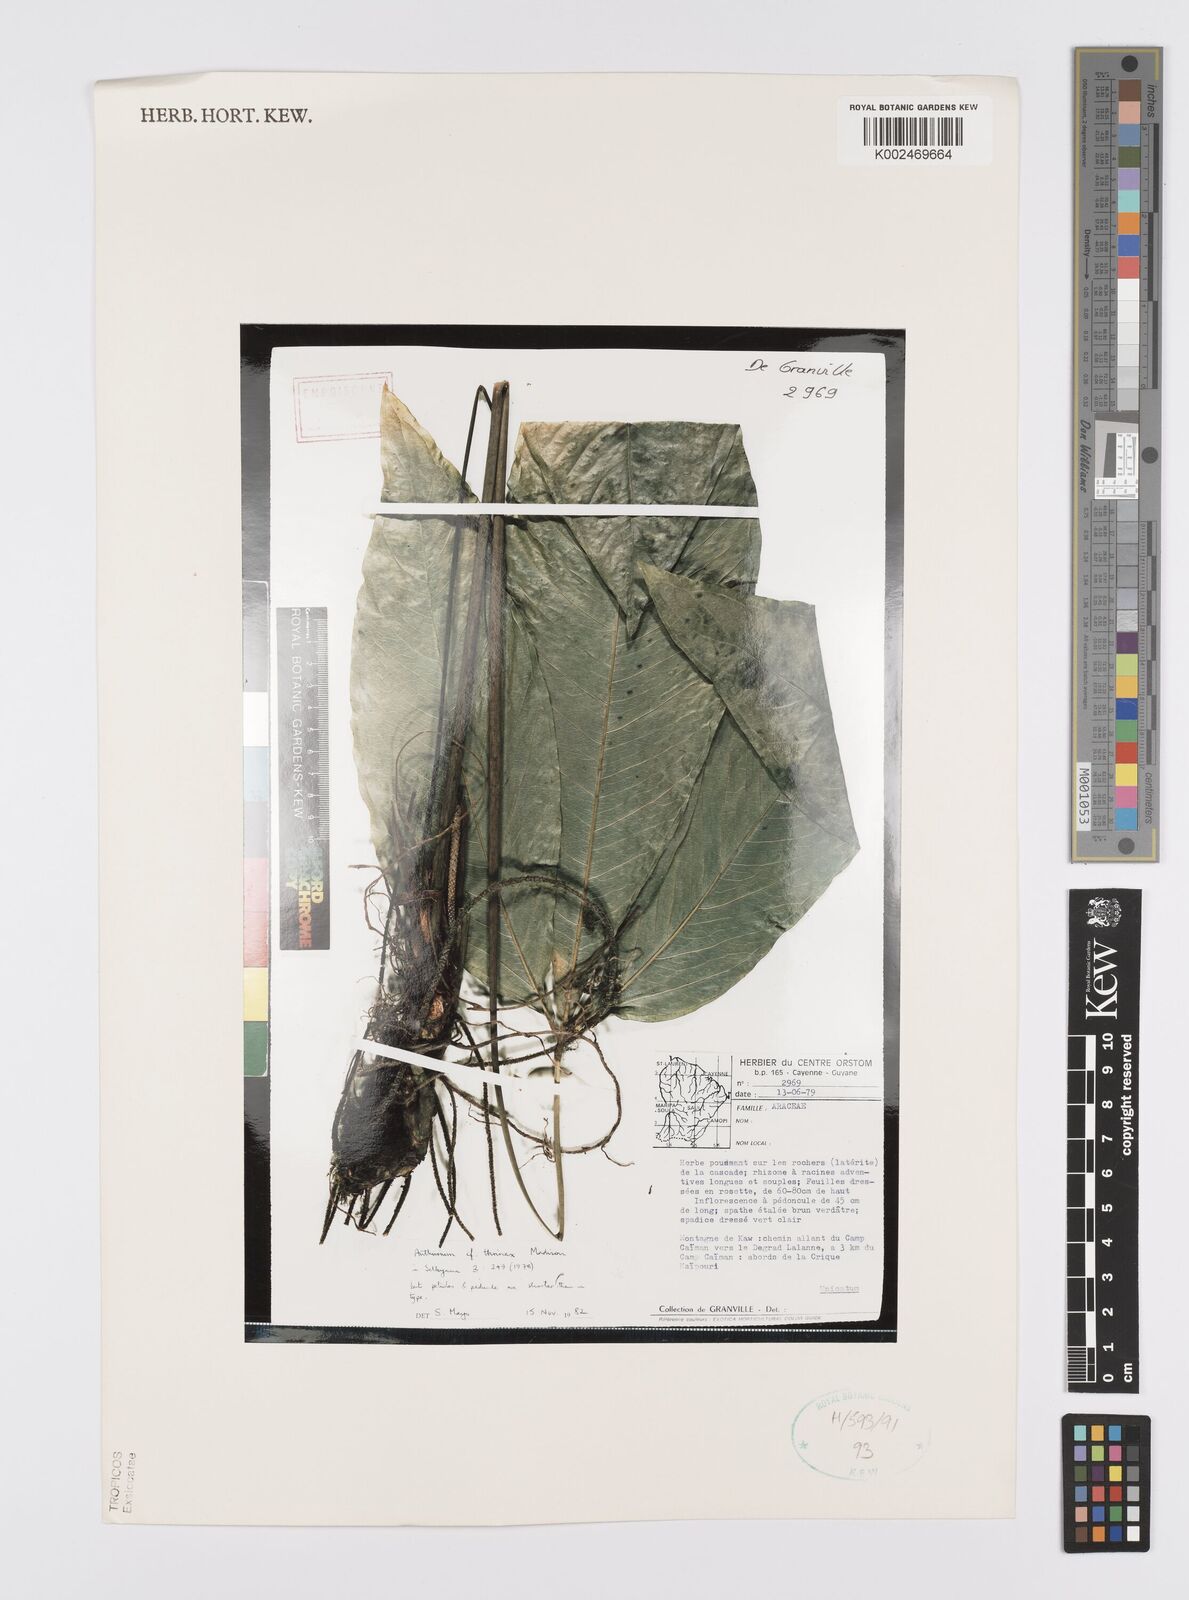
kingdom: Plantae
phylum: Tracheophyta
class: Liliopsida
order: Alismatales
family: Araceae
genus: Anthurium
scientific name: Anthurium thrinax
